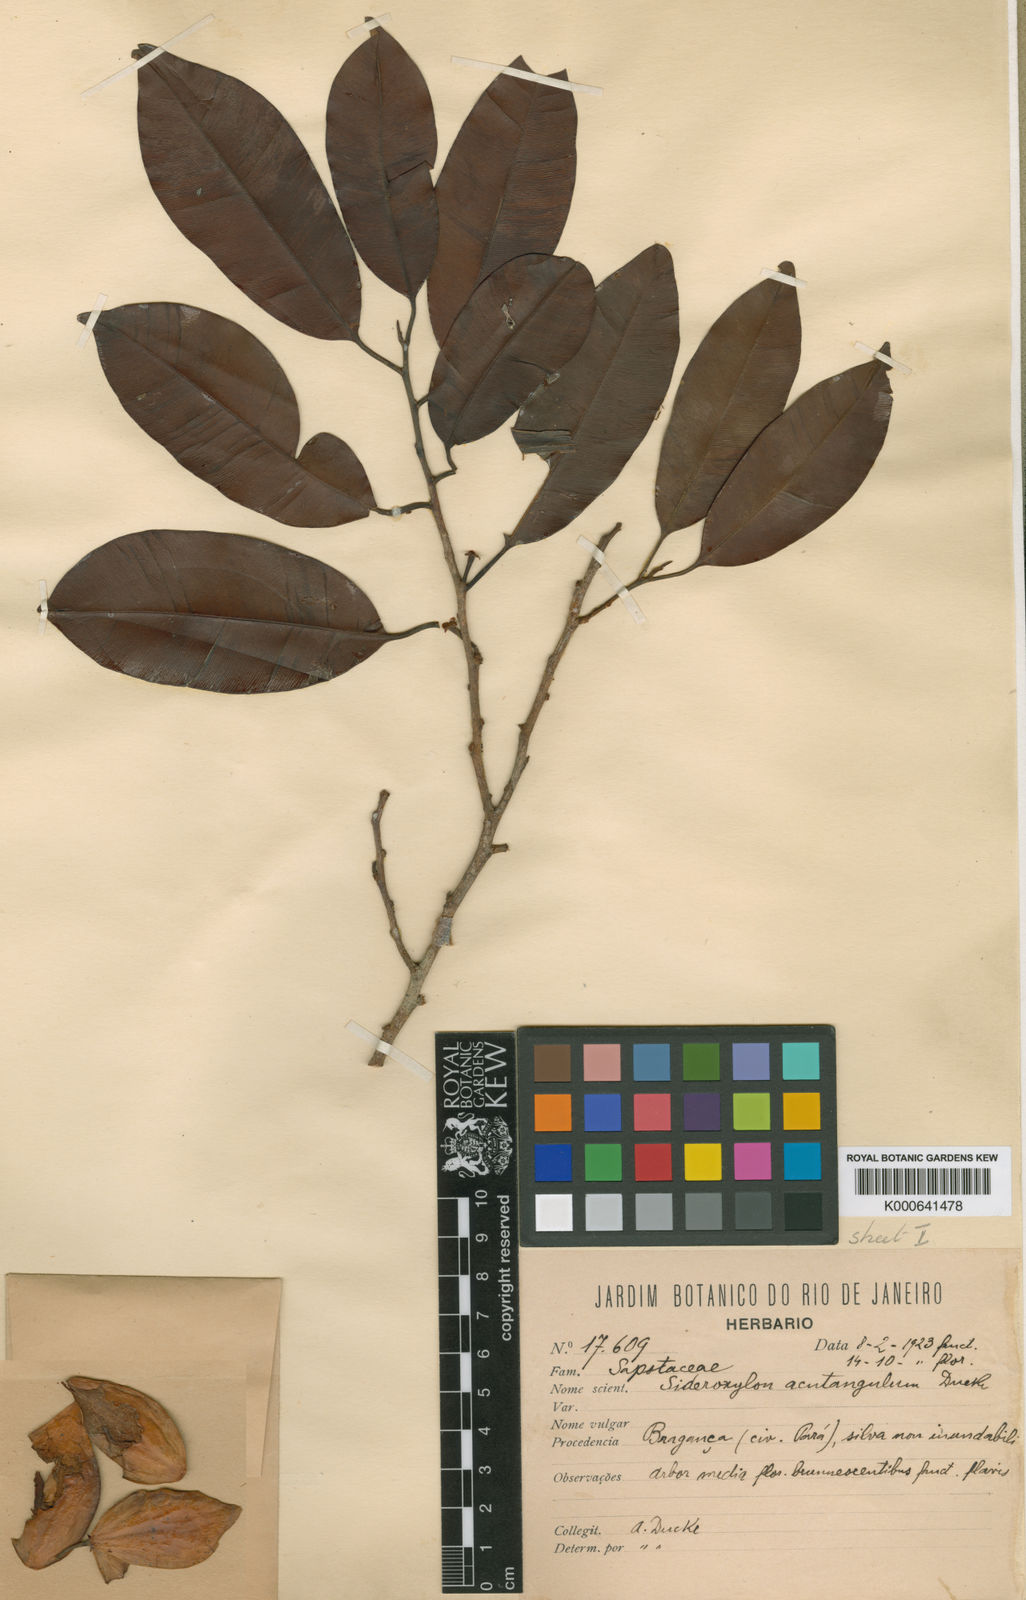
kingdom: Plantae
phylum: Tracheophyta
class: Magnoliopsida
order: Ericales
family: Sapotaceae
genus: Micropholis
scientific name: Micropholis acutangula
